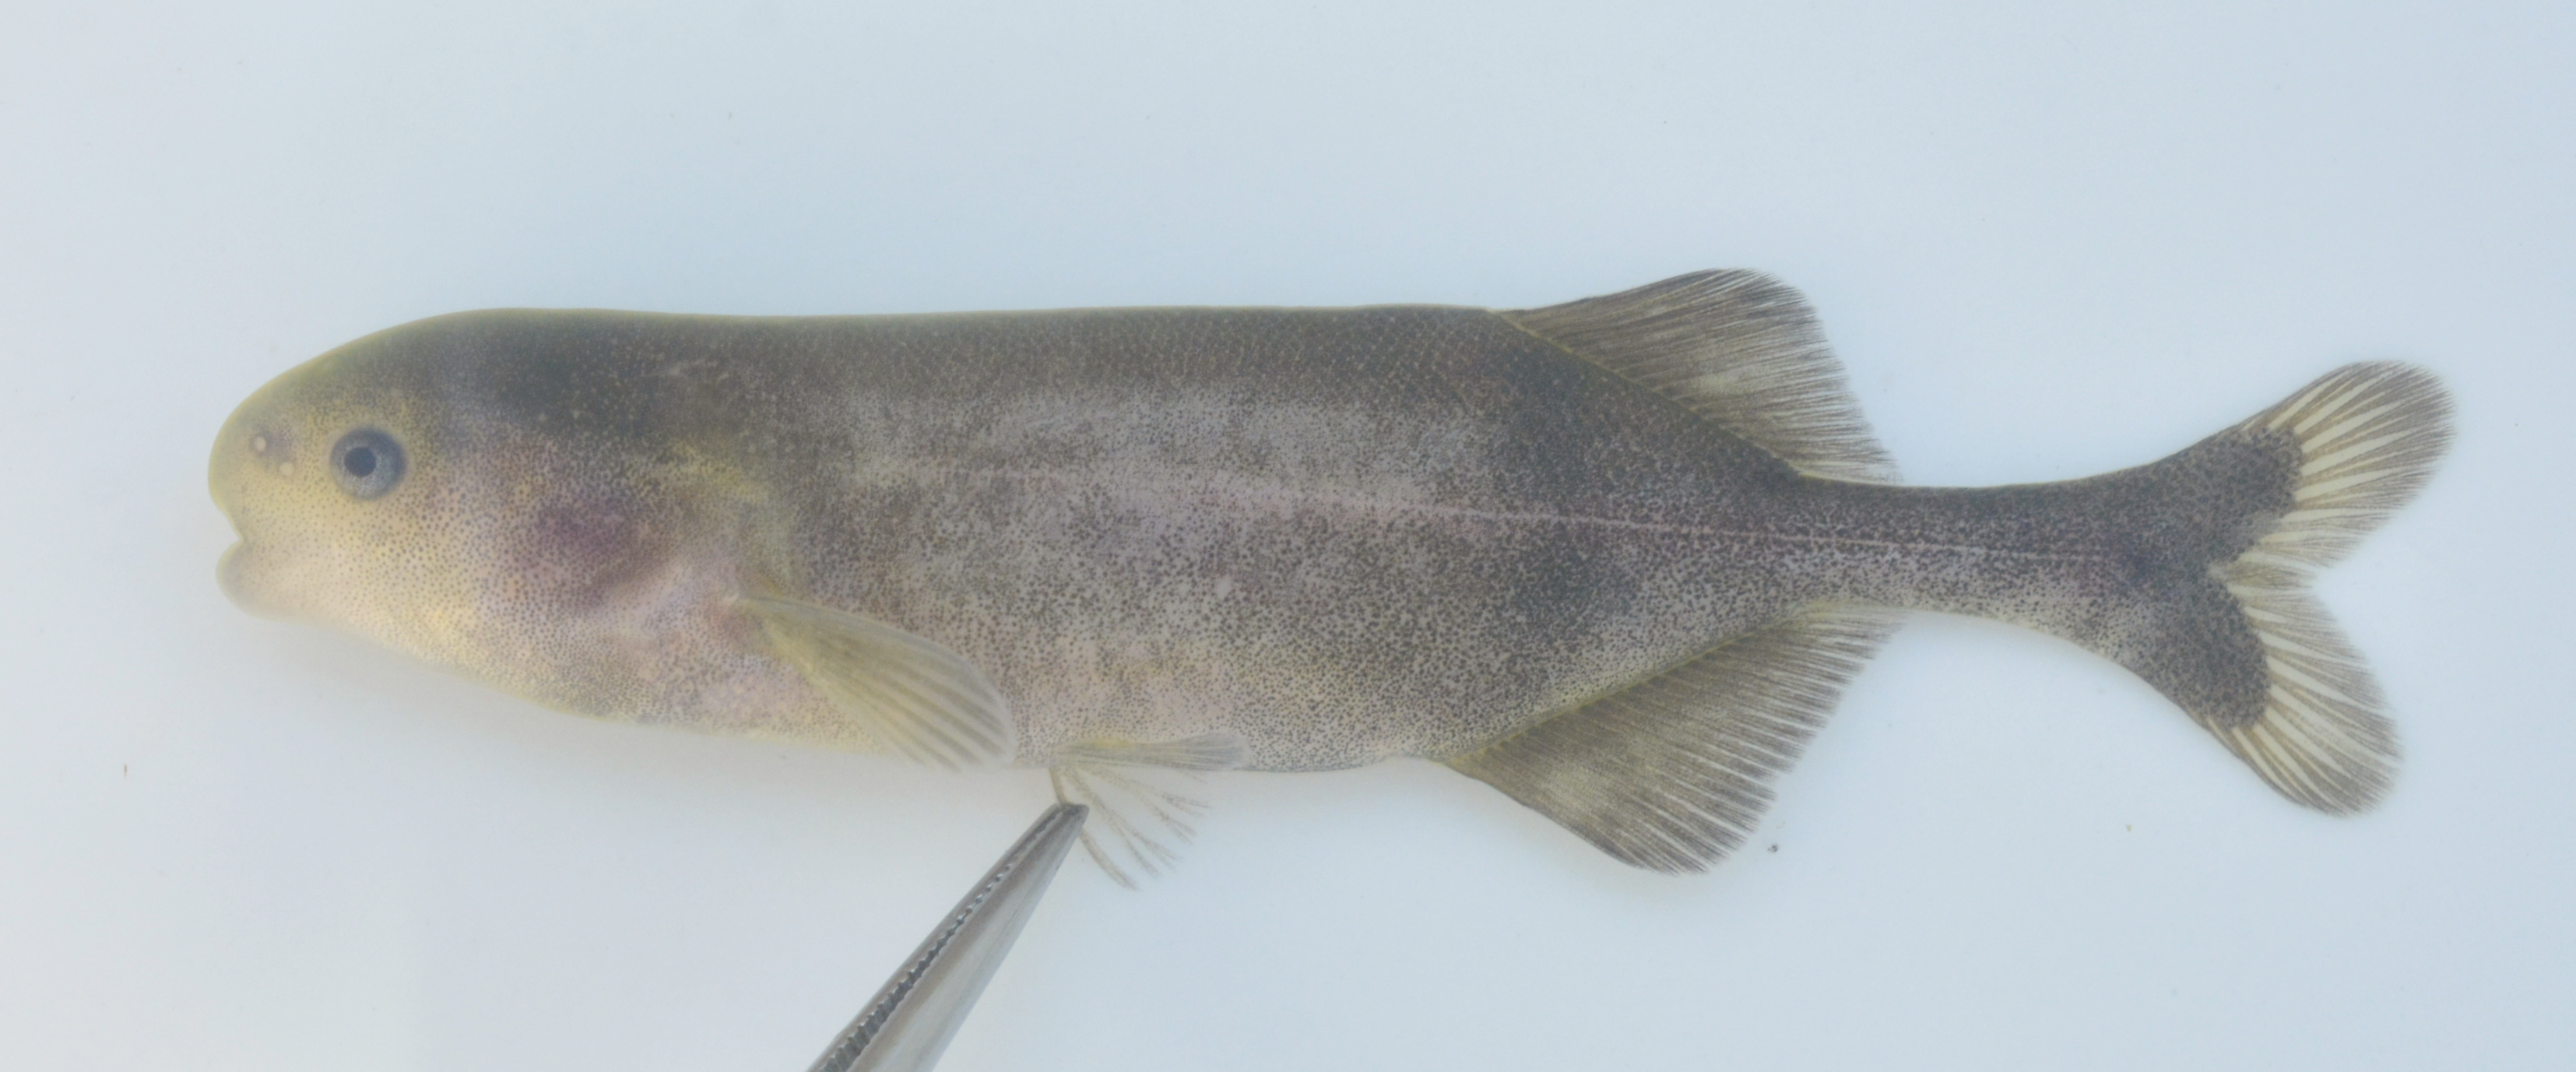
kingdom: Animalia
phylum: Chordata
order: Osteoglossiformes
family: Mormyridae
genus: Hippopotamyrus
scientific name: Hippopotamyrus
